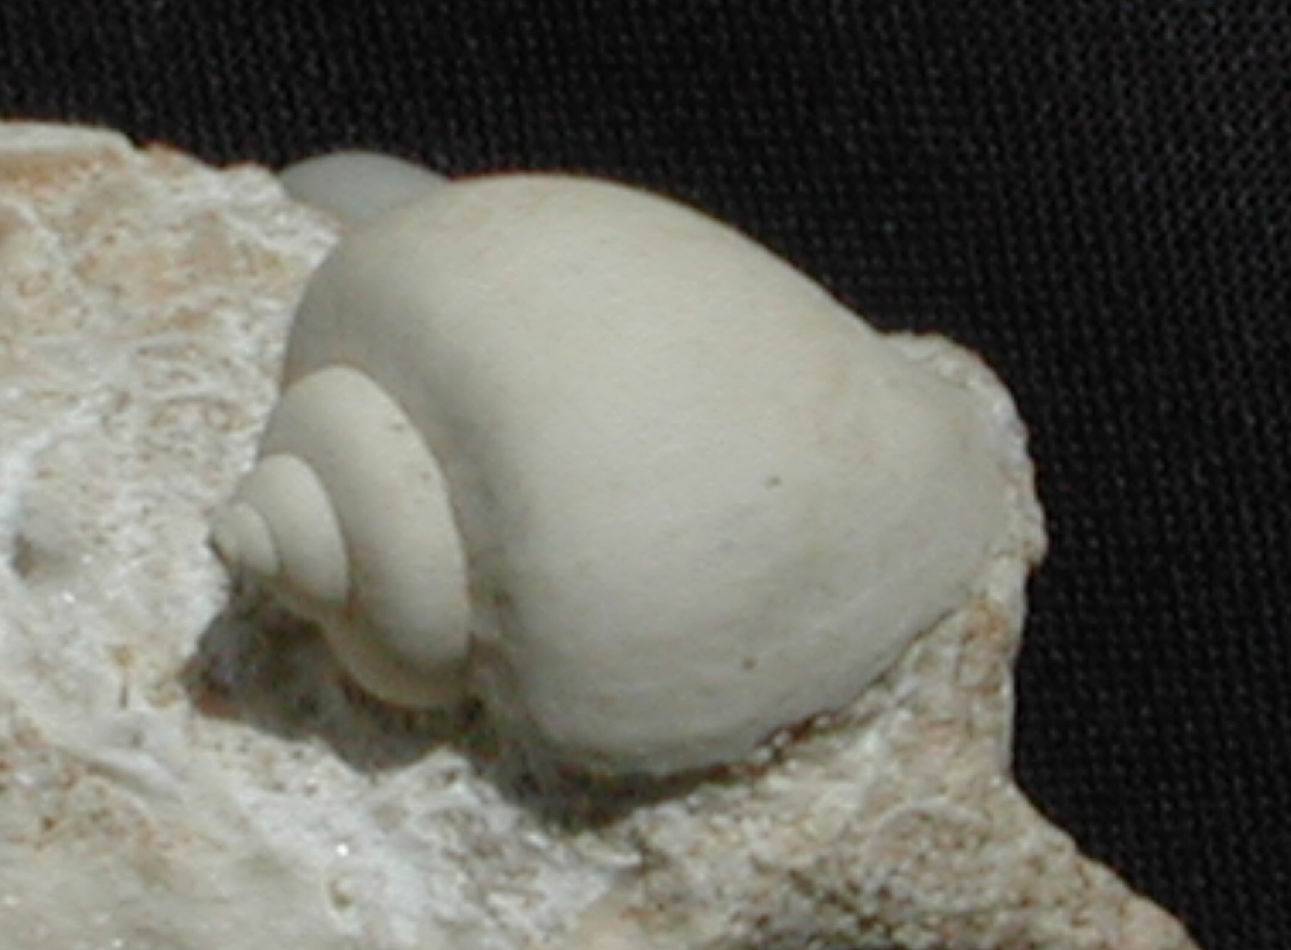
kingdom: Animalia
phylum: Mollusca
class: Gastropoda
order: Architaenioglossa
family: Ampullariidae
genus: Pila
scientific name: Pila Ampullaria obtusa
